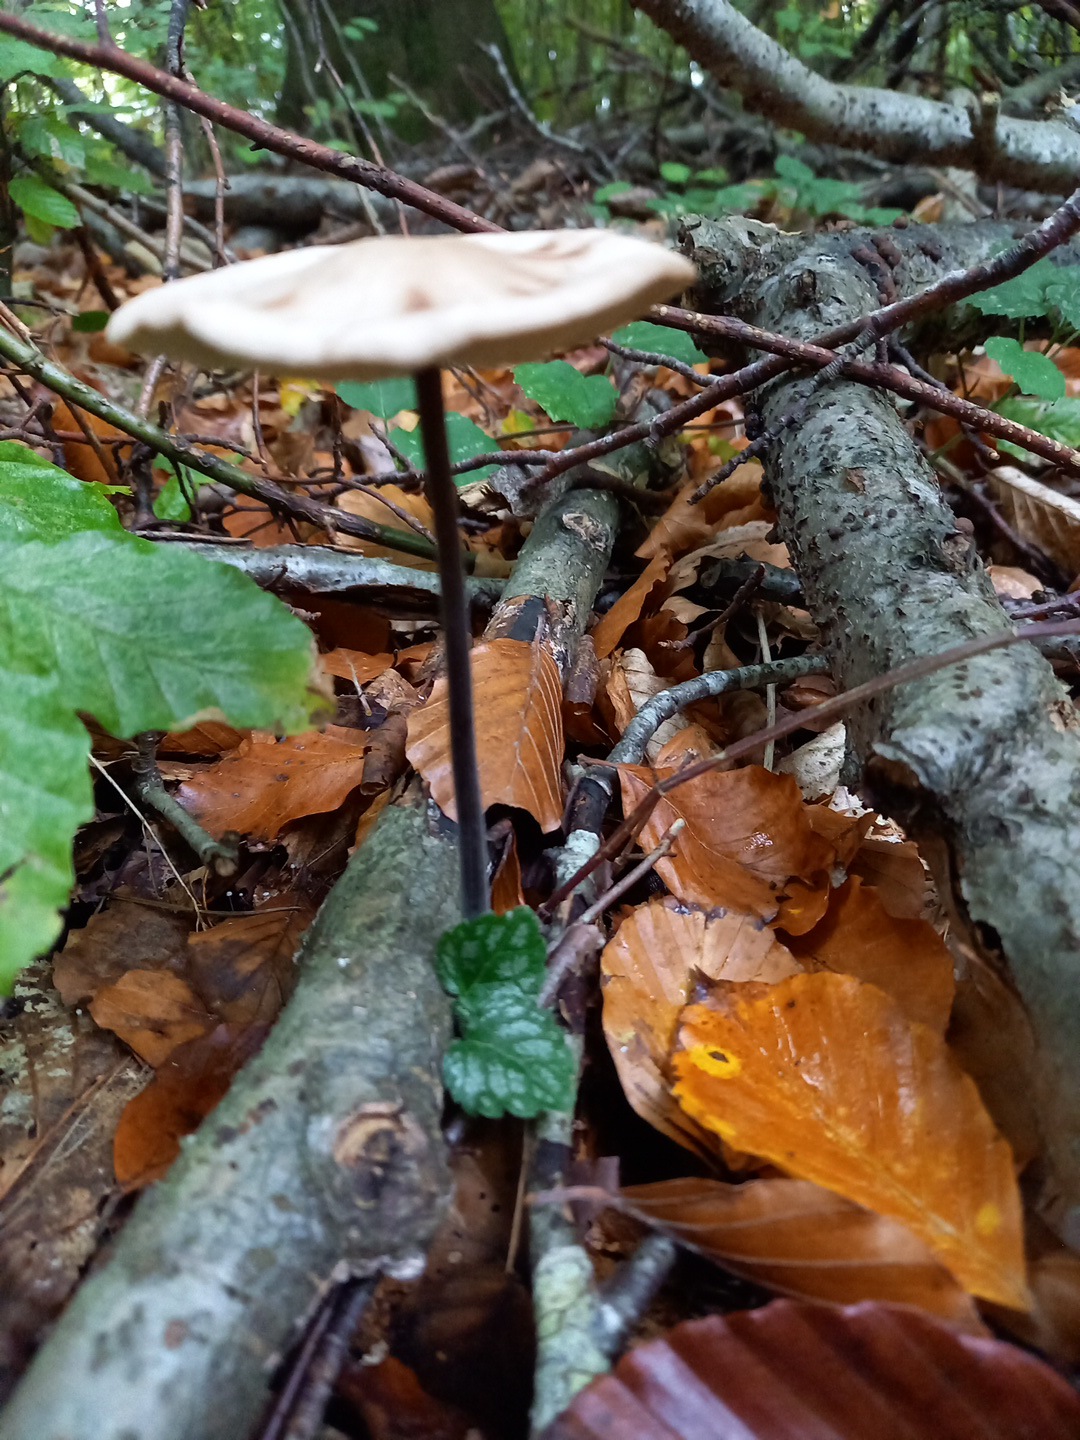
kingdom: Fungi
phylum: Basidiomycota
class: Agaricomycetes
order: Agaricales
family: Omphalotaceae
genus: Mycetinis
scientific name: Mycetinis alliaceus
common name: stor løghat
